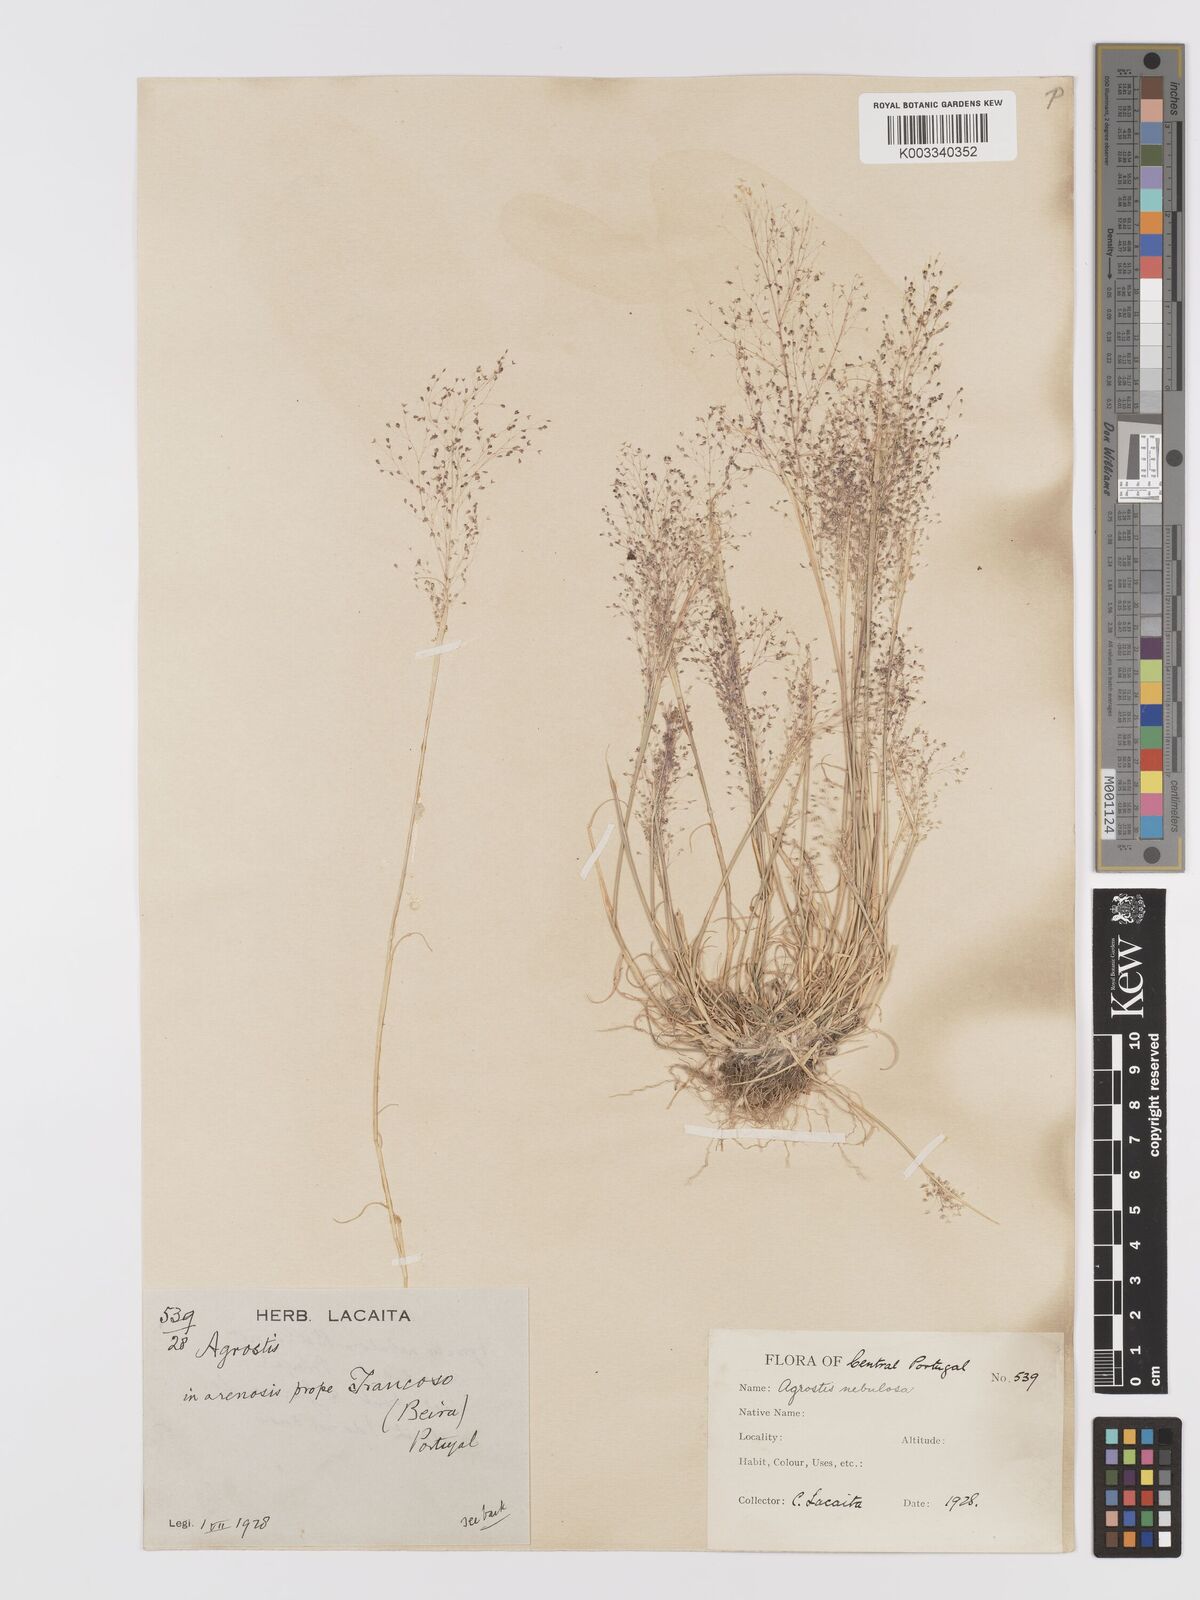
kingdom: Plantae
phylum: Tracheophyta
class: Liliopsida
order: Poales
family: Poaceae
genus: Agrostis
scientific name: Agrostis nebulosa
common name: Cloud grass
